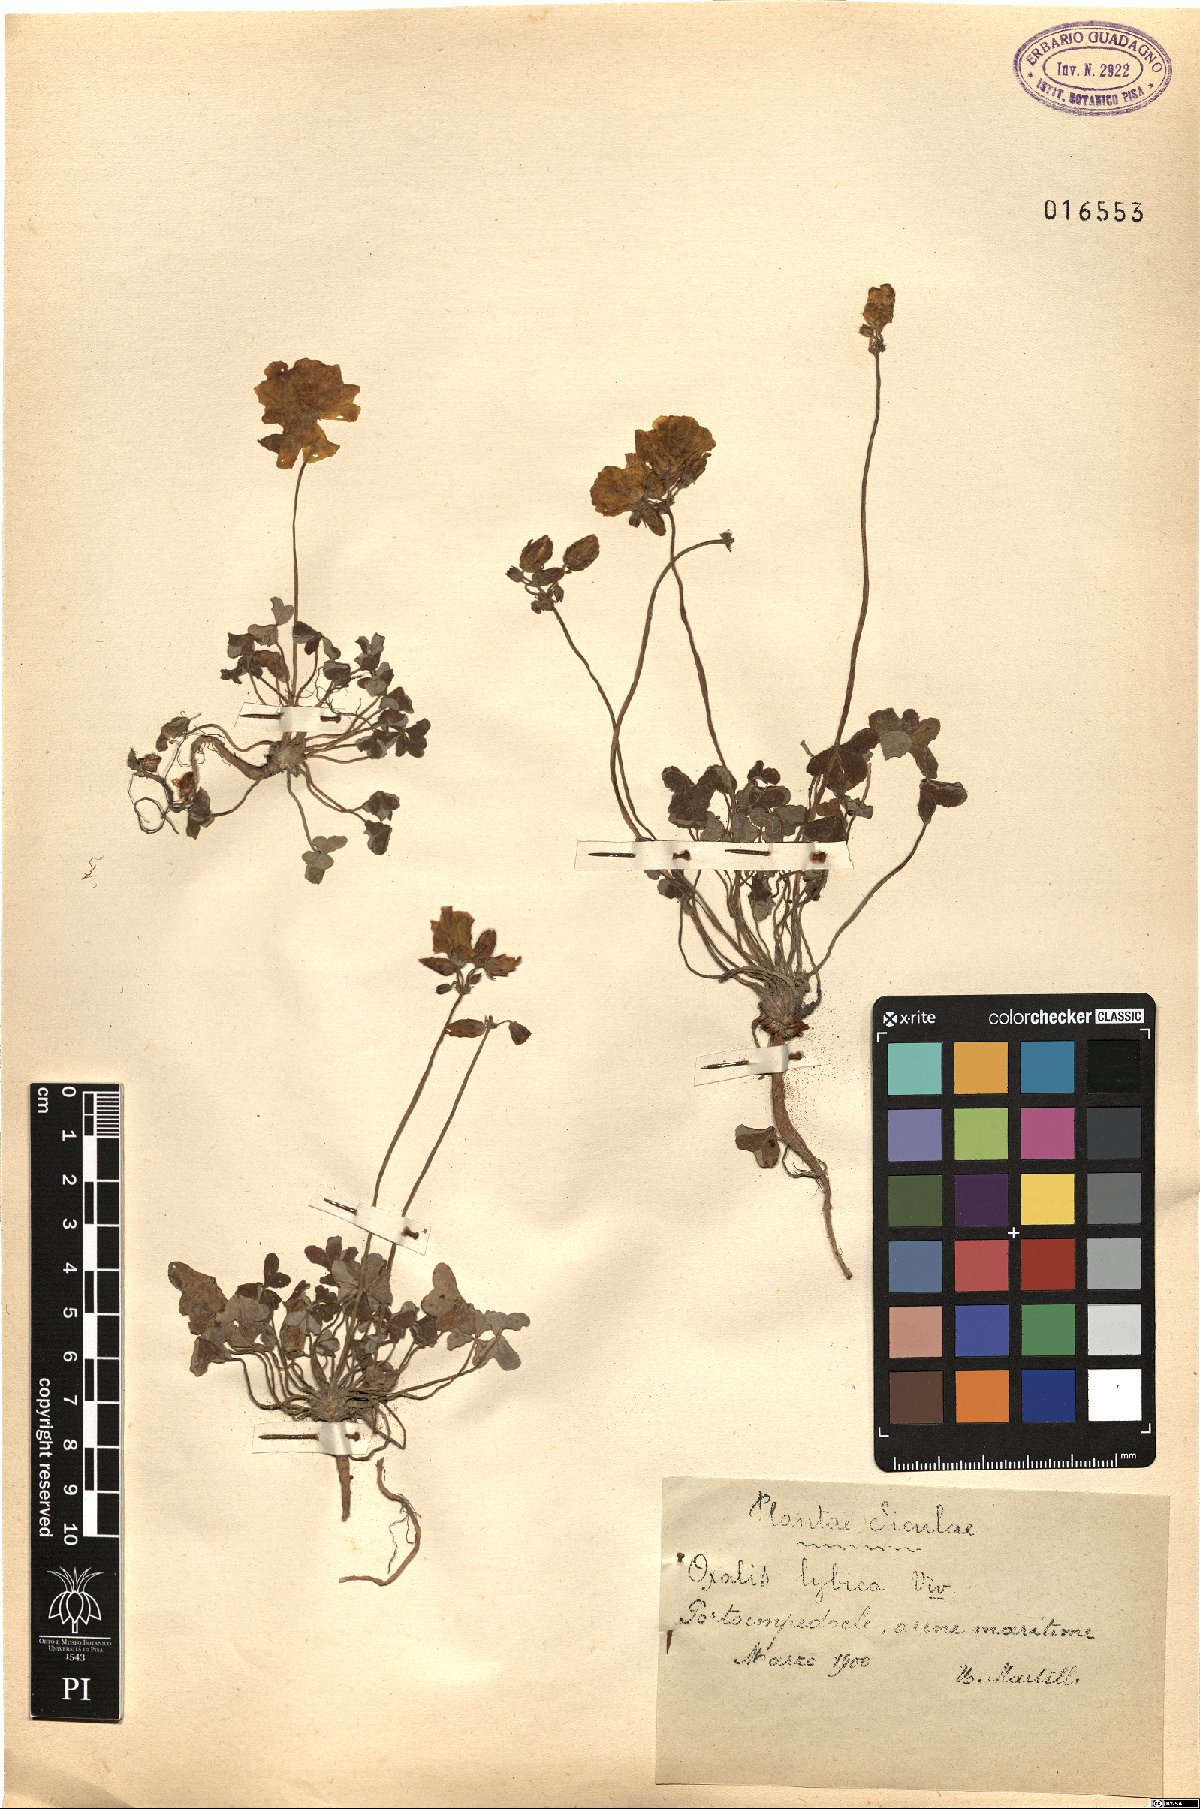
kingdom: Plantae
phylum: Tracheophyta
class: Magnoliopsida
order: Oxalidales
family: Oxalidaceae
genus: Oxalis
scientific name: Oxalis pes-caprae
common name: Bermuda-buttercup
